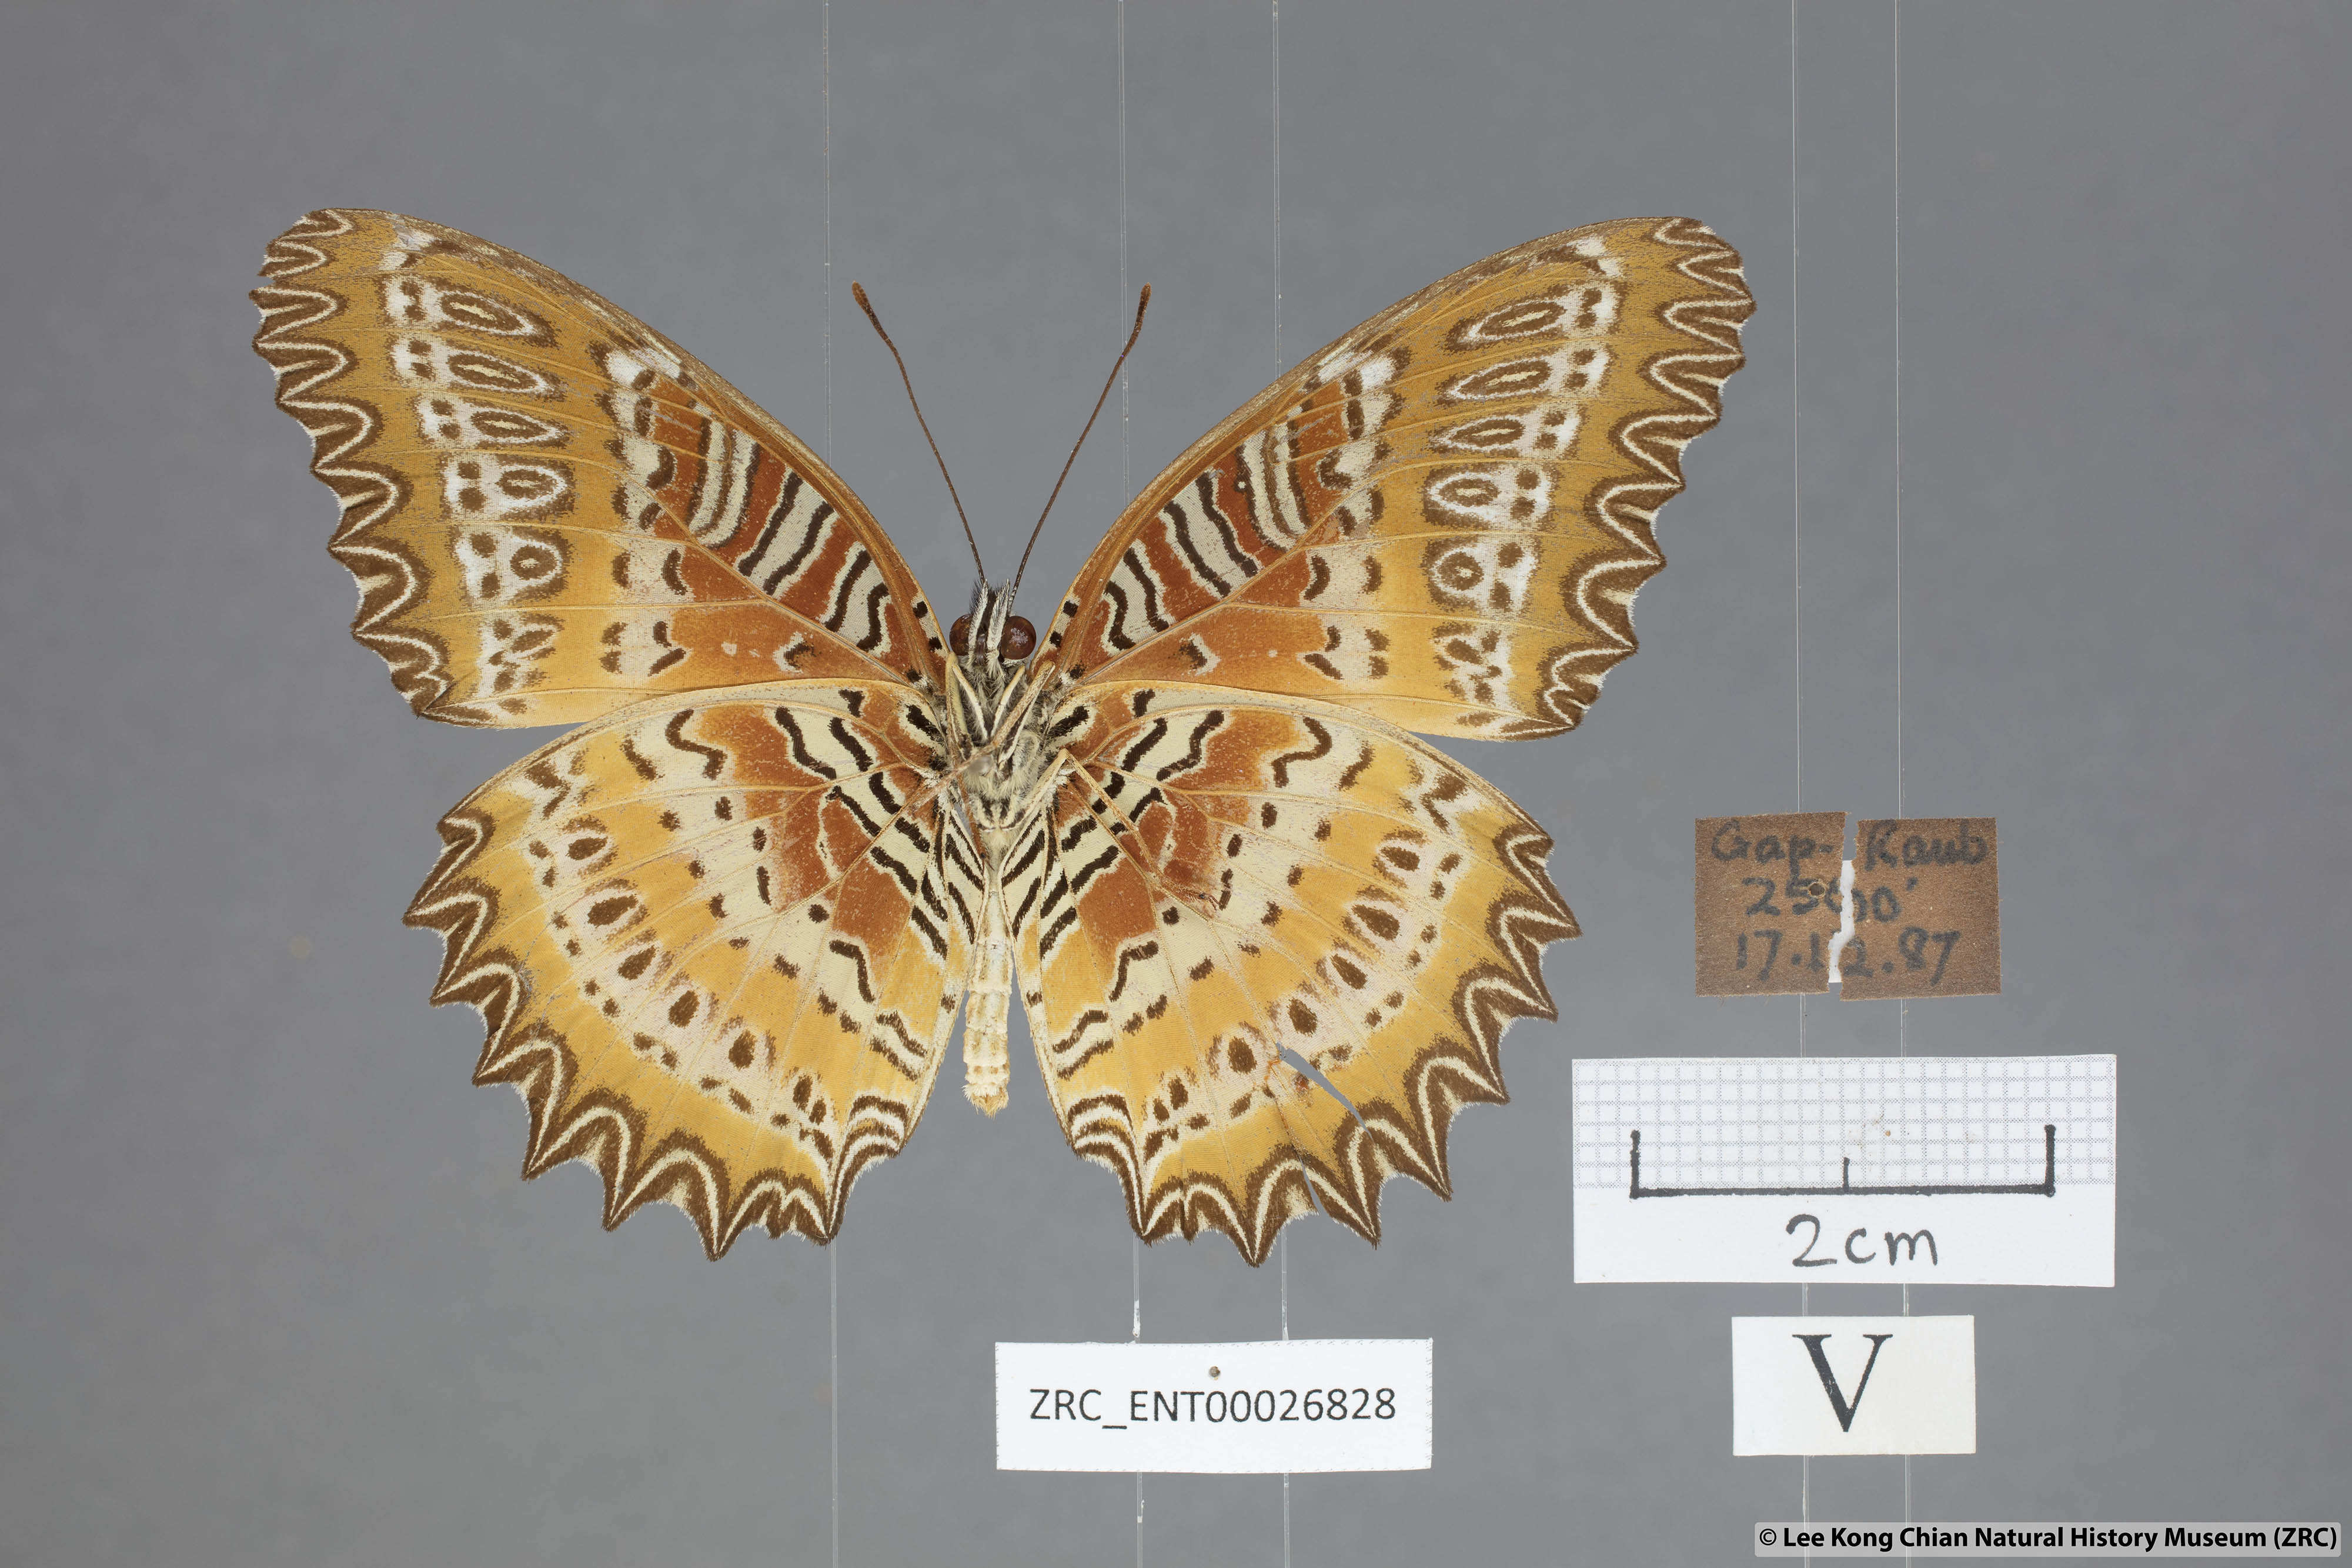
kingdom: Animalia
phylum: Arthropoda
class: Insecta
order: Lepidoptera
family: Nymphalidae
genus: Cethosia
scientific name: Cethosia biblis
